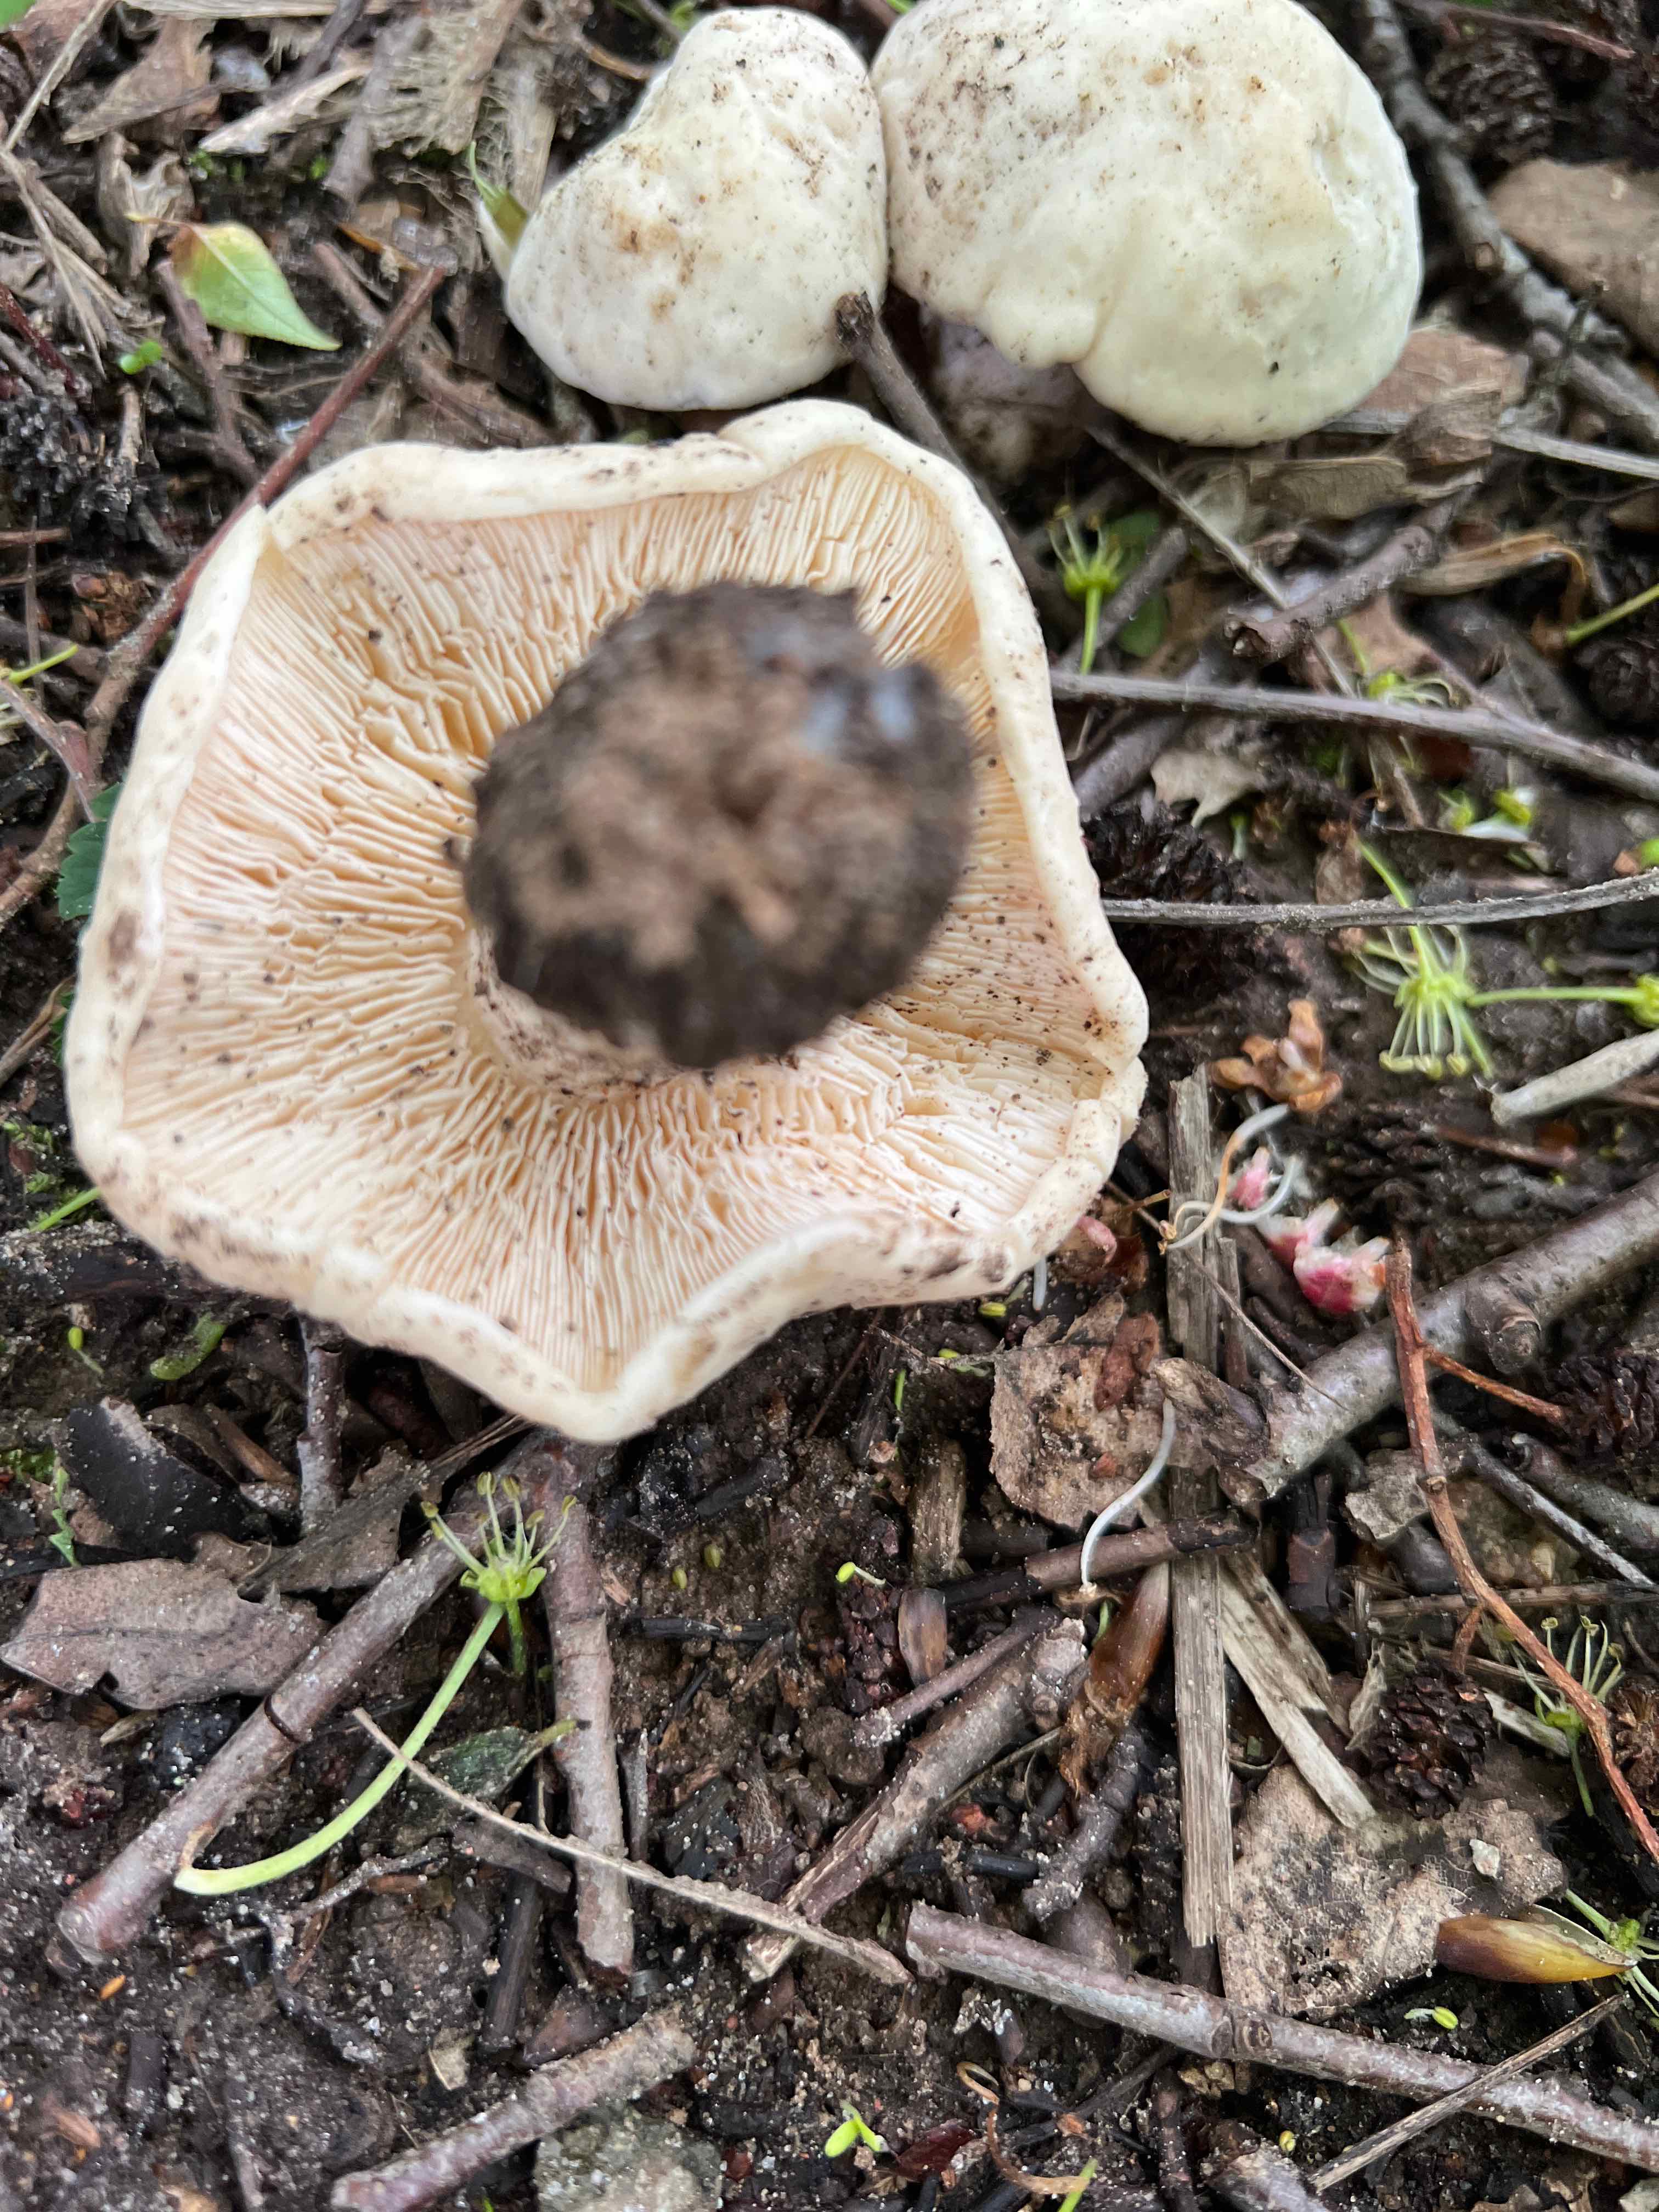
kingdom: Fungi
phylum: Basidiomycota
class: Agaricomycetes
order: Agaricales
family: Lyophyllaceae
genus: Calocybe
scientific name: Calocybe gambosa
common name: vårmusseron
